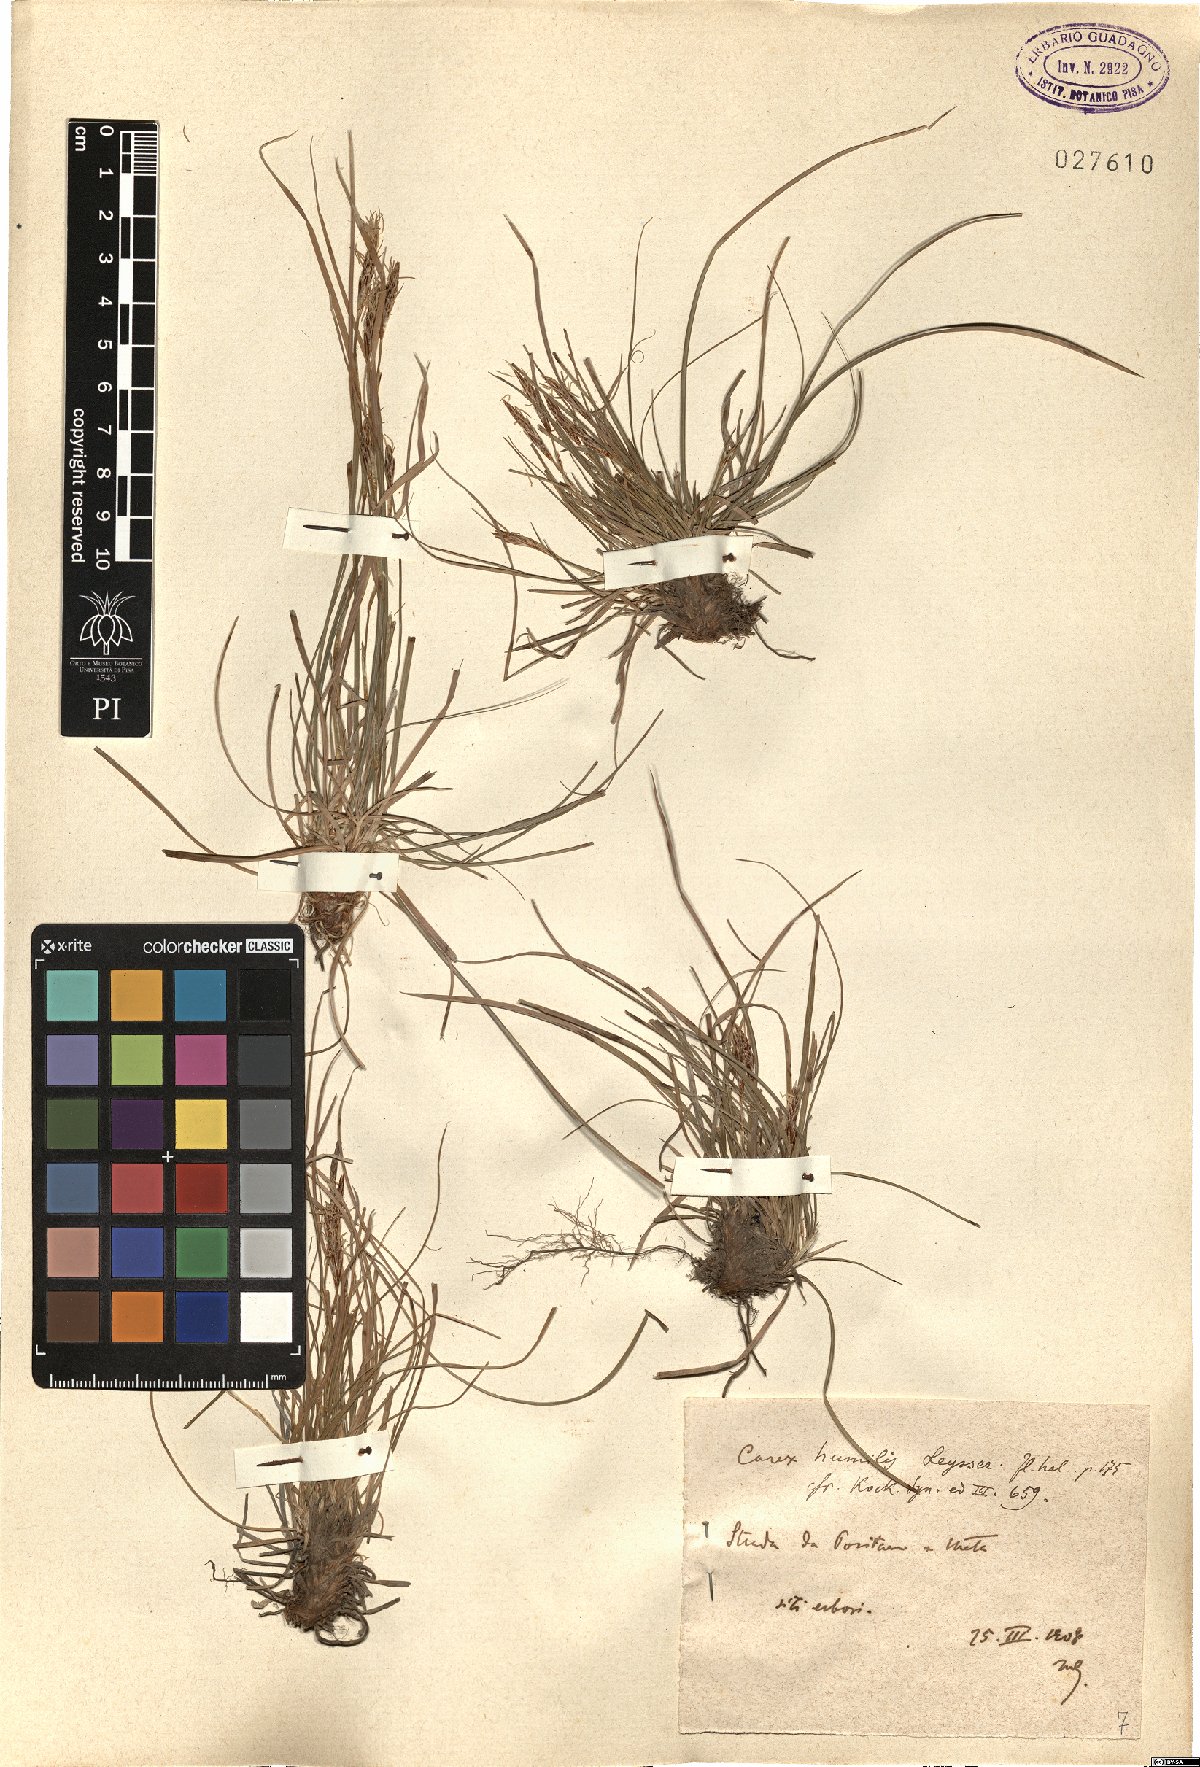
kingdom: Plantae
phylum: Tracheophyta
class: Liliopsida
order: Poales
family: Cyperaceae
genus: Carex
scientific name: Carex humilis
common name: Dwarf sedge
